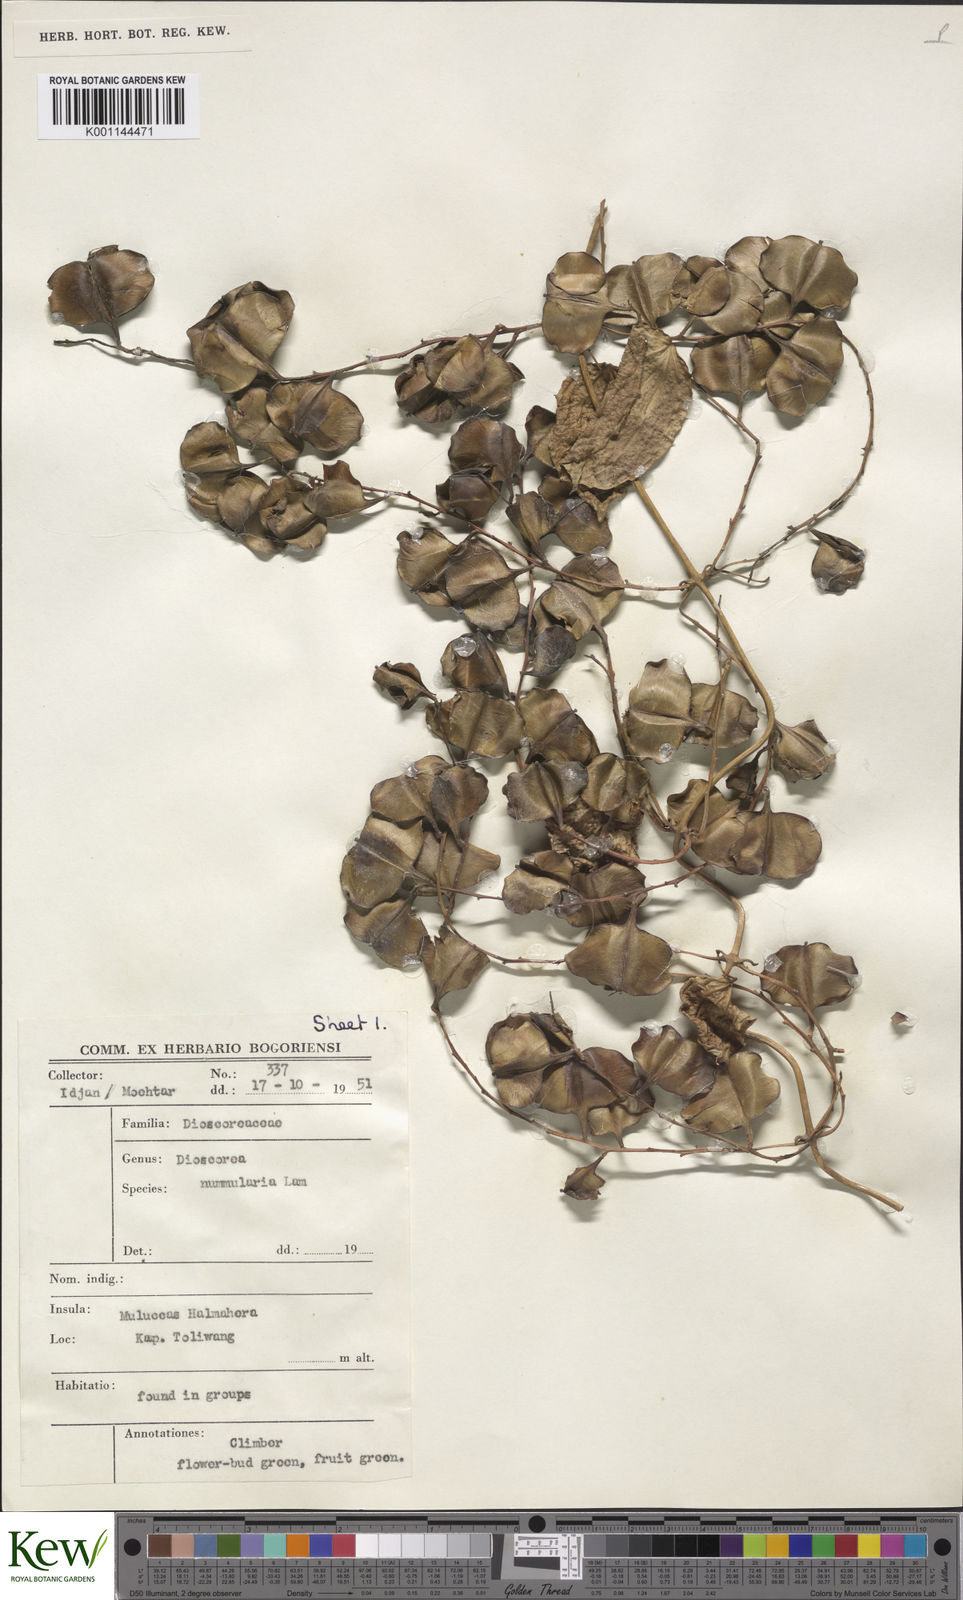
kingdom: Plantae
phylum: Tracheophyta
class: Liliopsida
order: Dioscoreales
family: Dioscoreaceae
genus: Dioscorea
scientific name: Dioscorea nummularia
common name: Pacific yam
